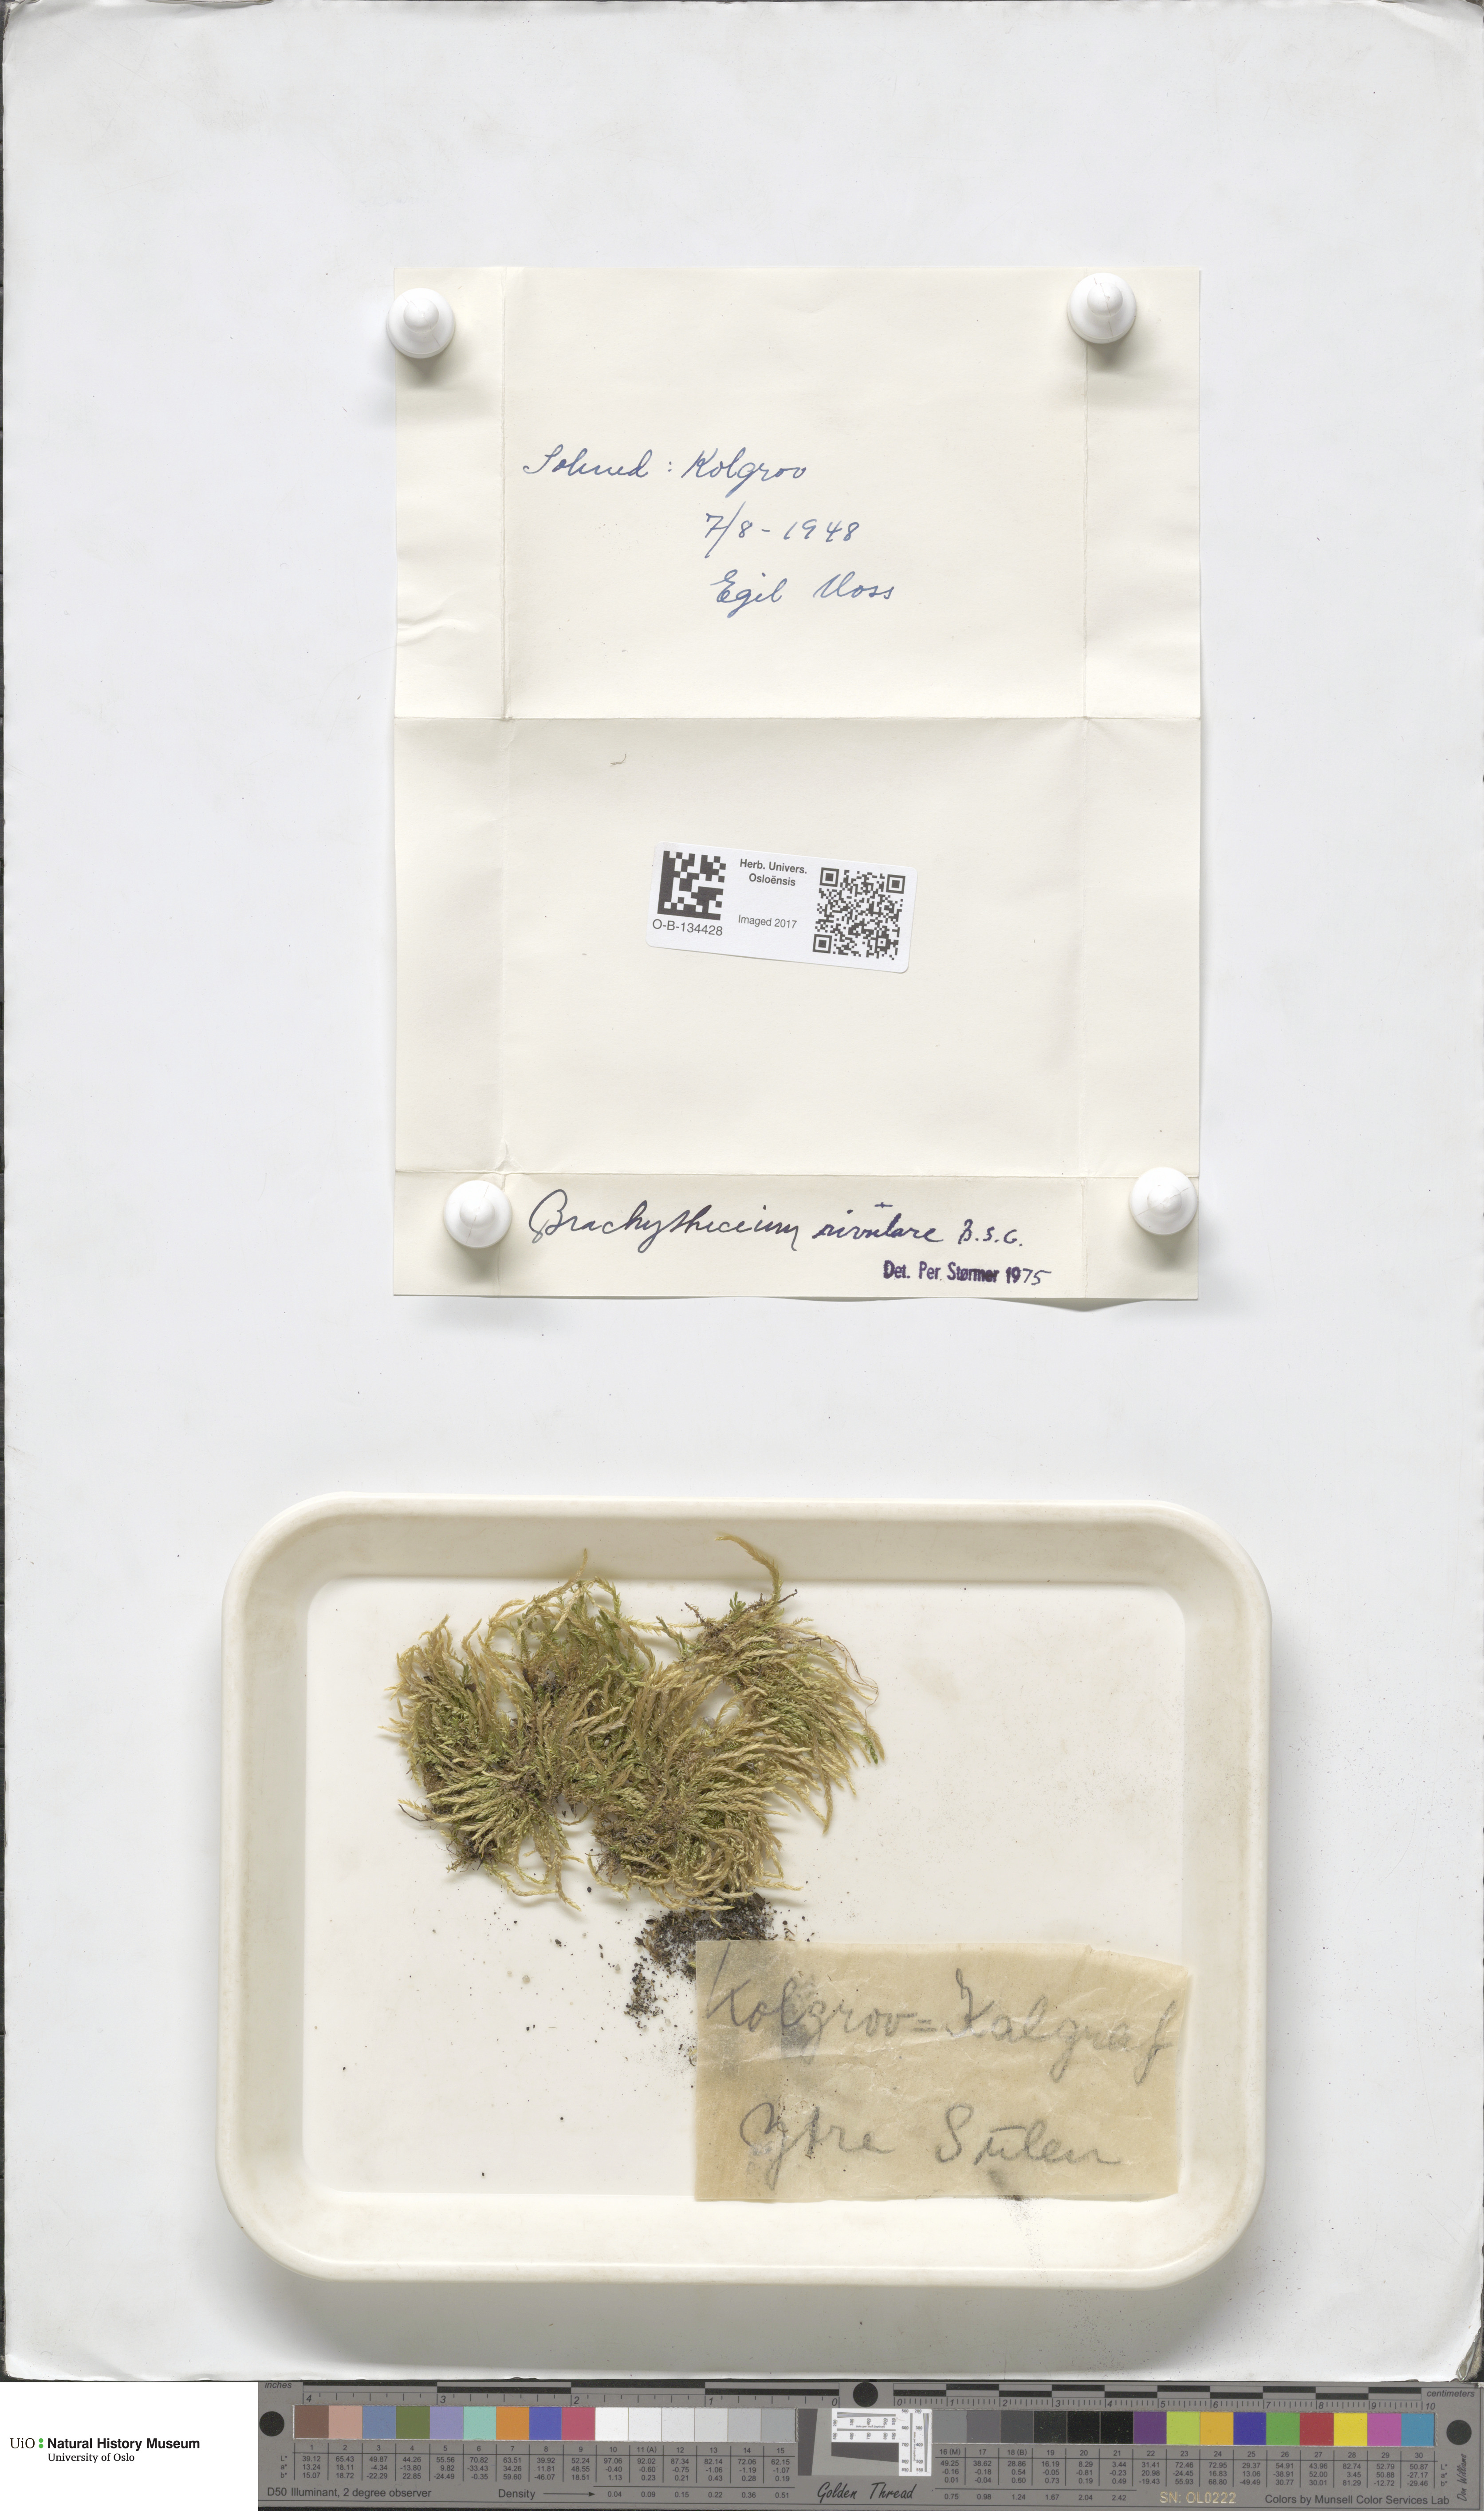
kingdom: Plantae
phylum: Bryophyta
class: Bryopsida
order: Hypnales
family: Brachytheciaceae
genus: Brachythecium
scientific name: Brachythecium rivulare
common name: River ragged moss
